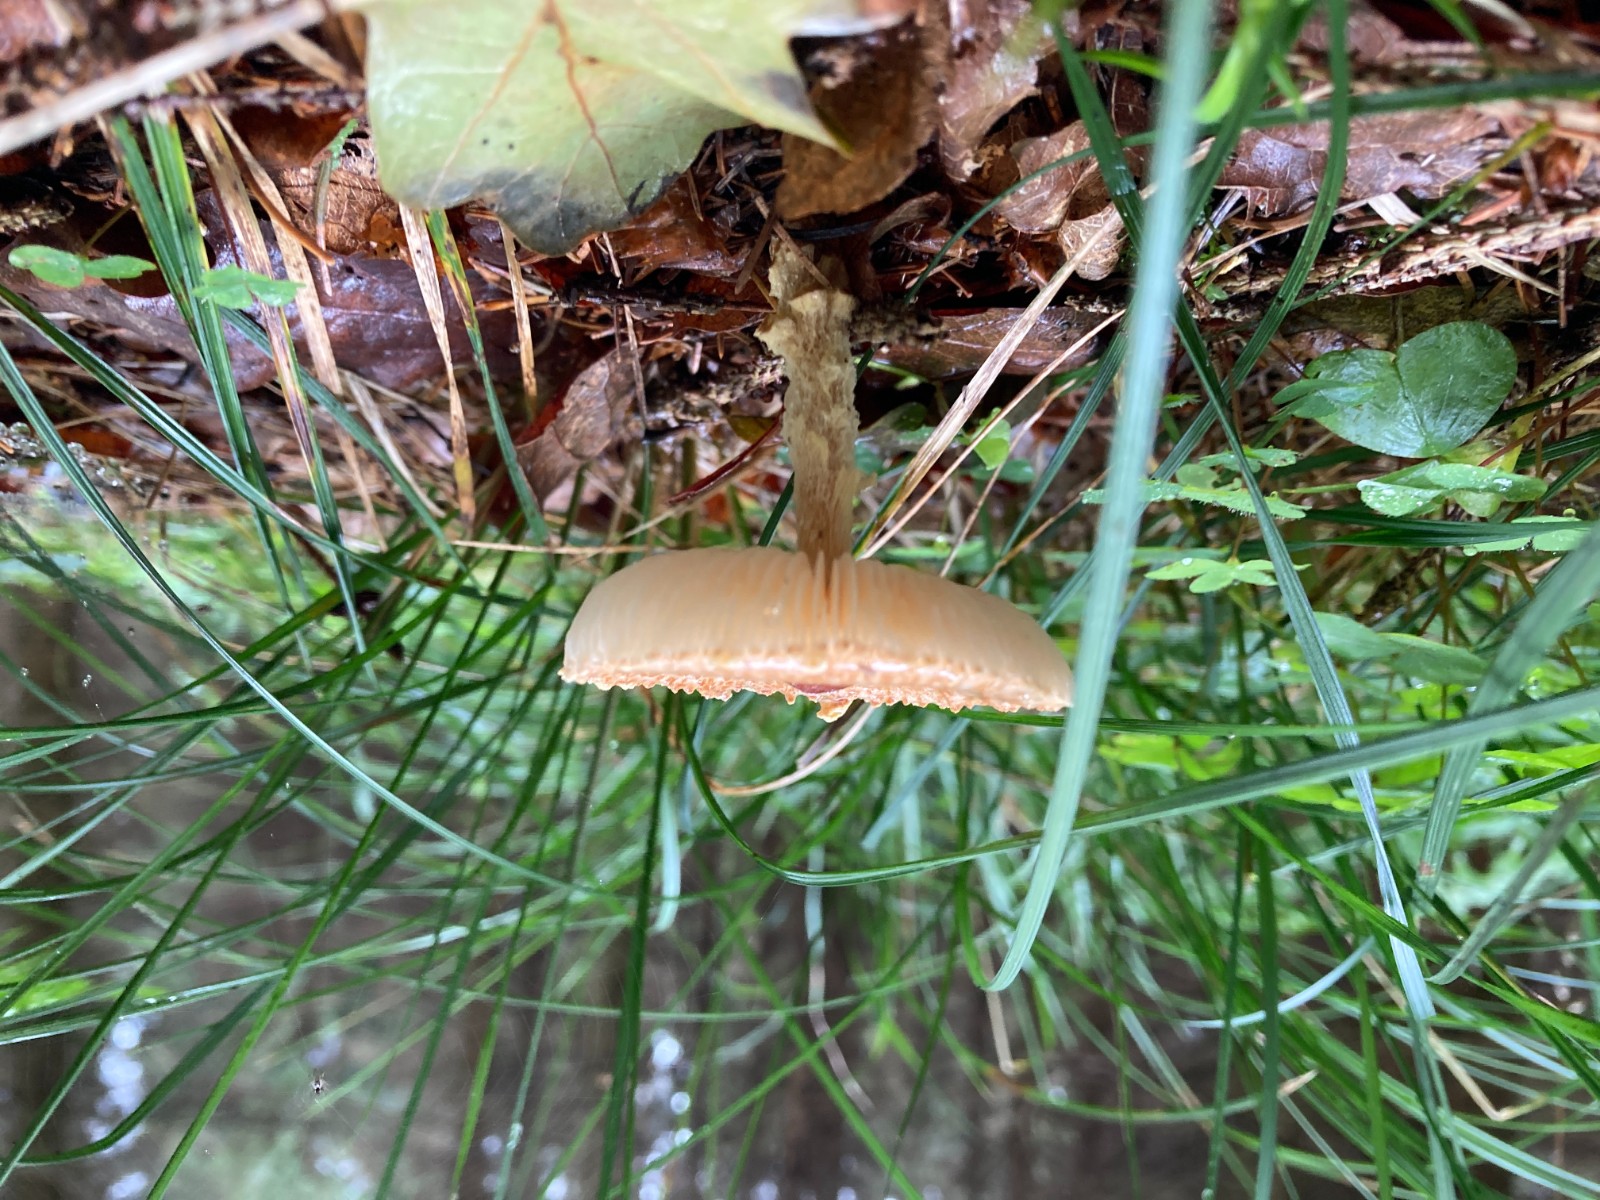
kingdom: Fungi
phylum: Basidiomycota
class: Agaricomycetes
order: Agaricales
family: Agaricaceae
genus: Lepiota
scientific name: Lepiota magnispora
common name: gulfnugget parasolhat
